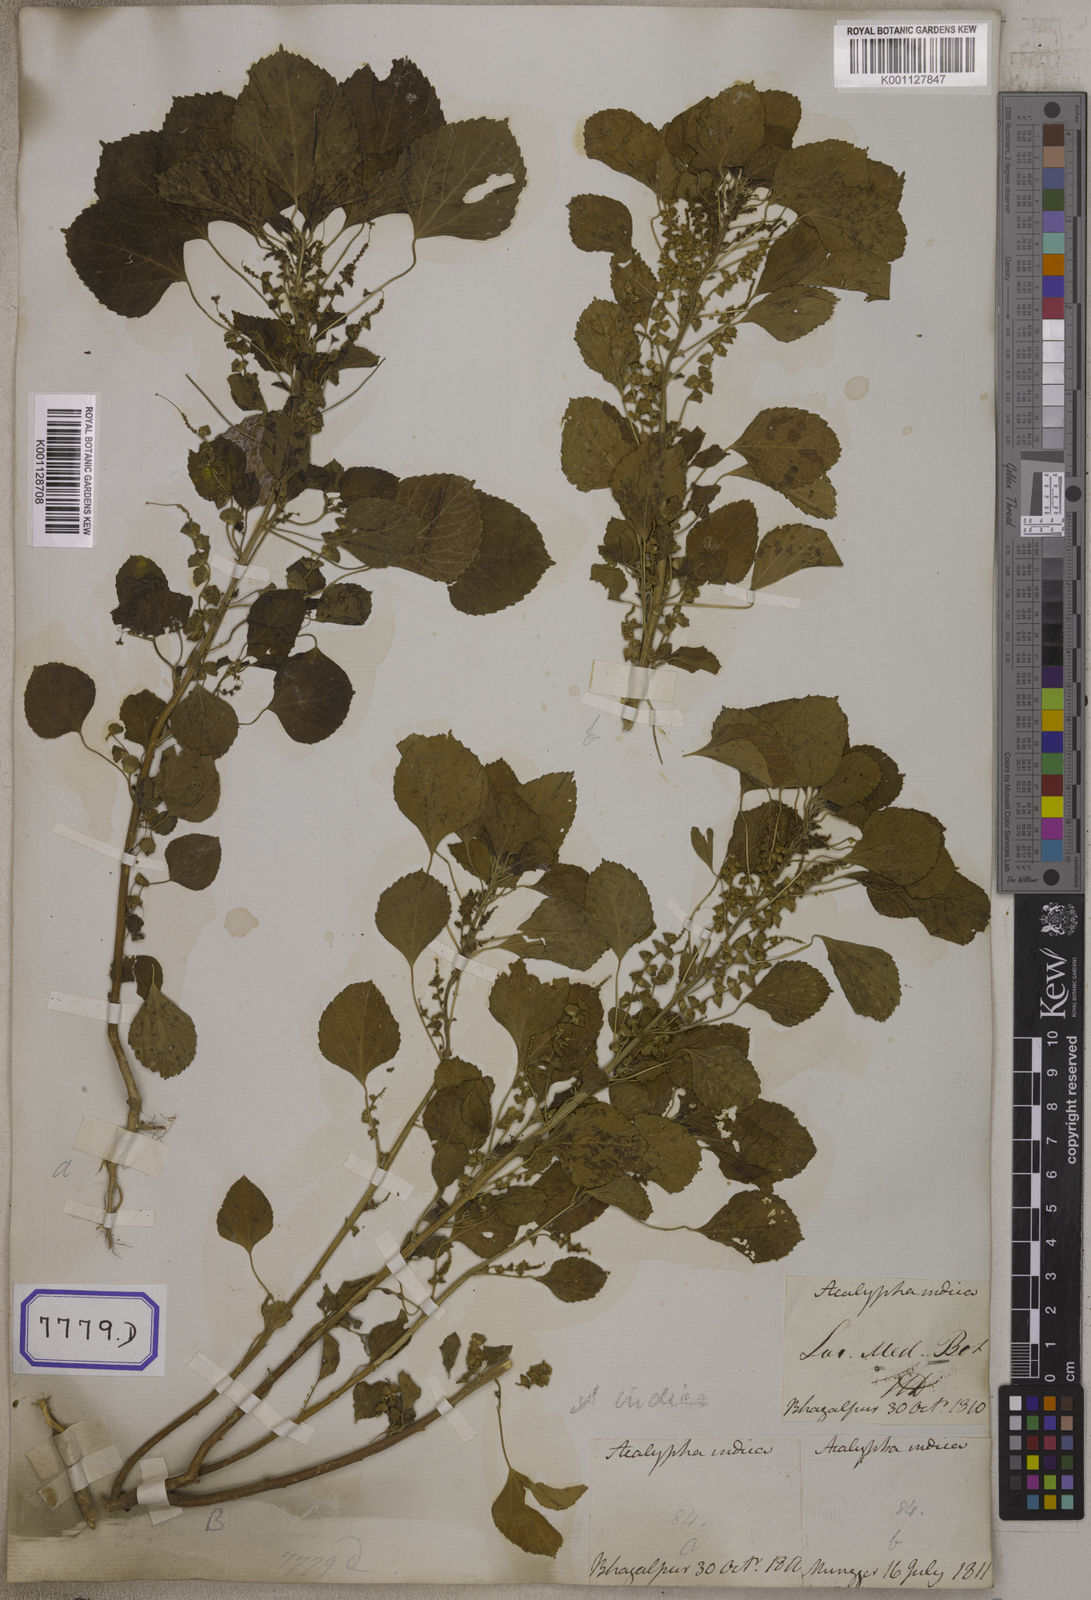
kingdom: Plantae
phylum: Tracheophyta
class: Magnoliopsida
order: Malpighiales
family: Euphorbiaceae
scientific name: Euphorbiaceae
